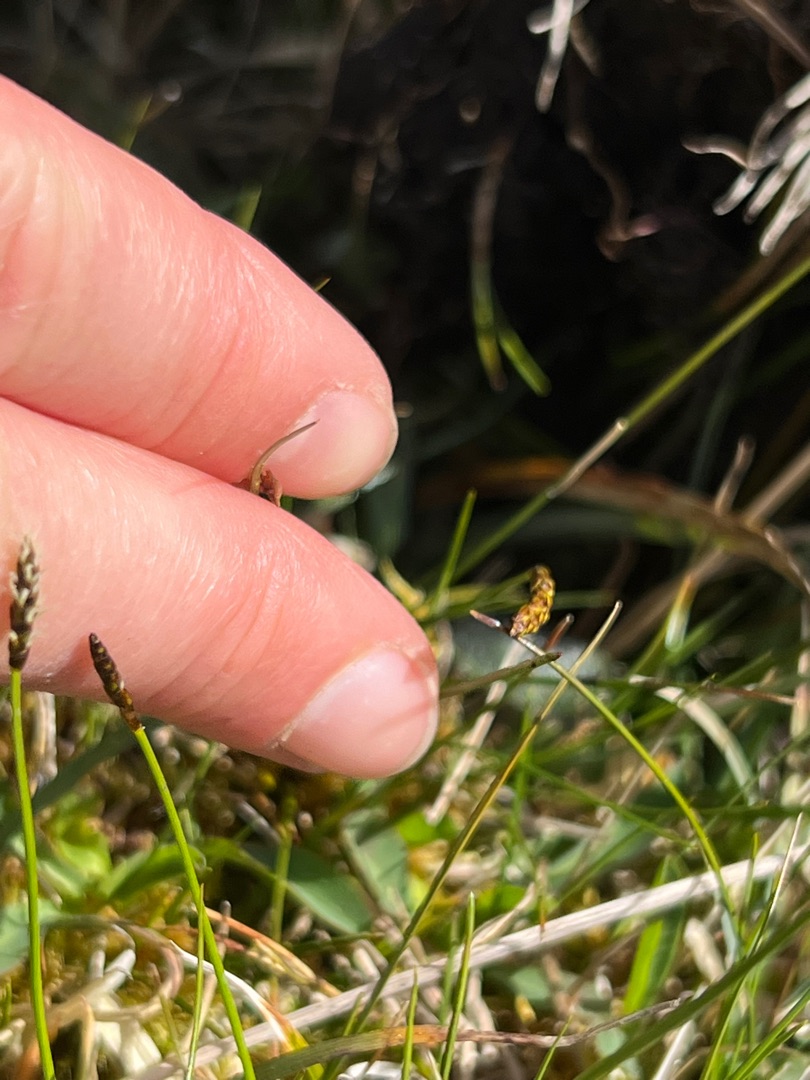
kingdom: Plantae
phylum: Tracheophyta
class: Liliopsida
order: Poales
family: Cyperaceae
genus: Carex
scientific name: Carex dioica
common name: Tvebo star
